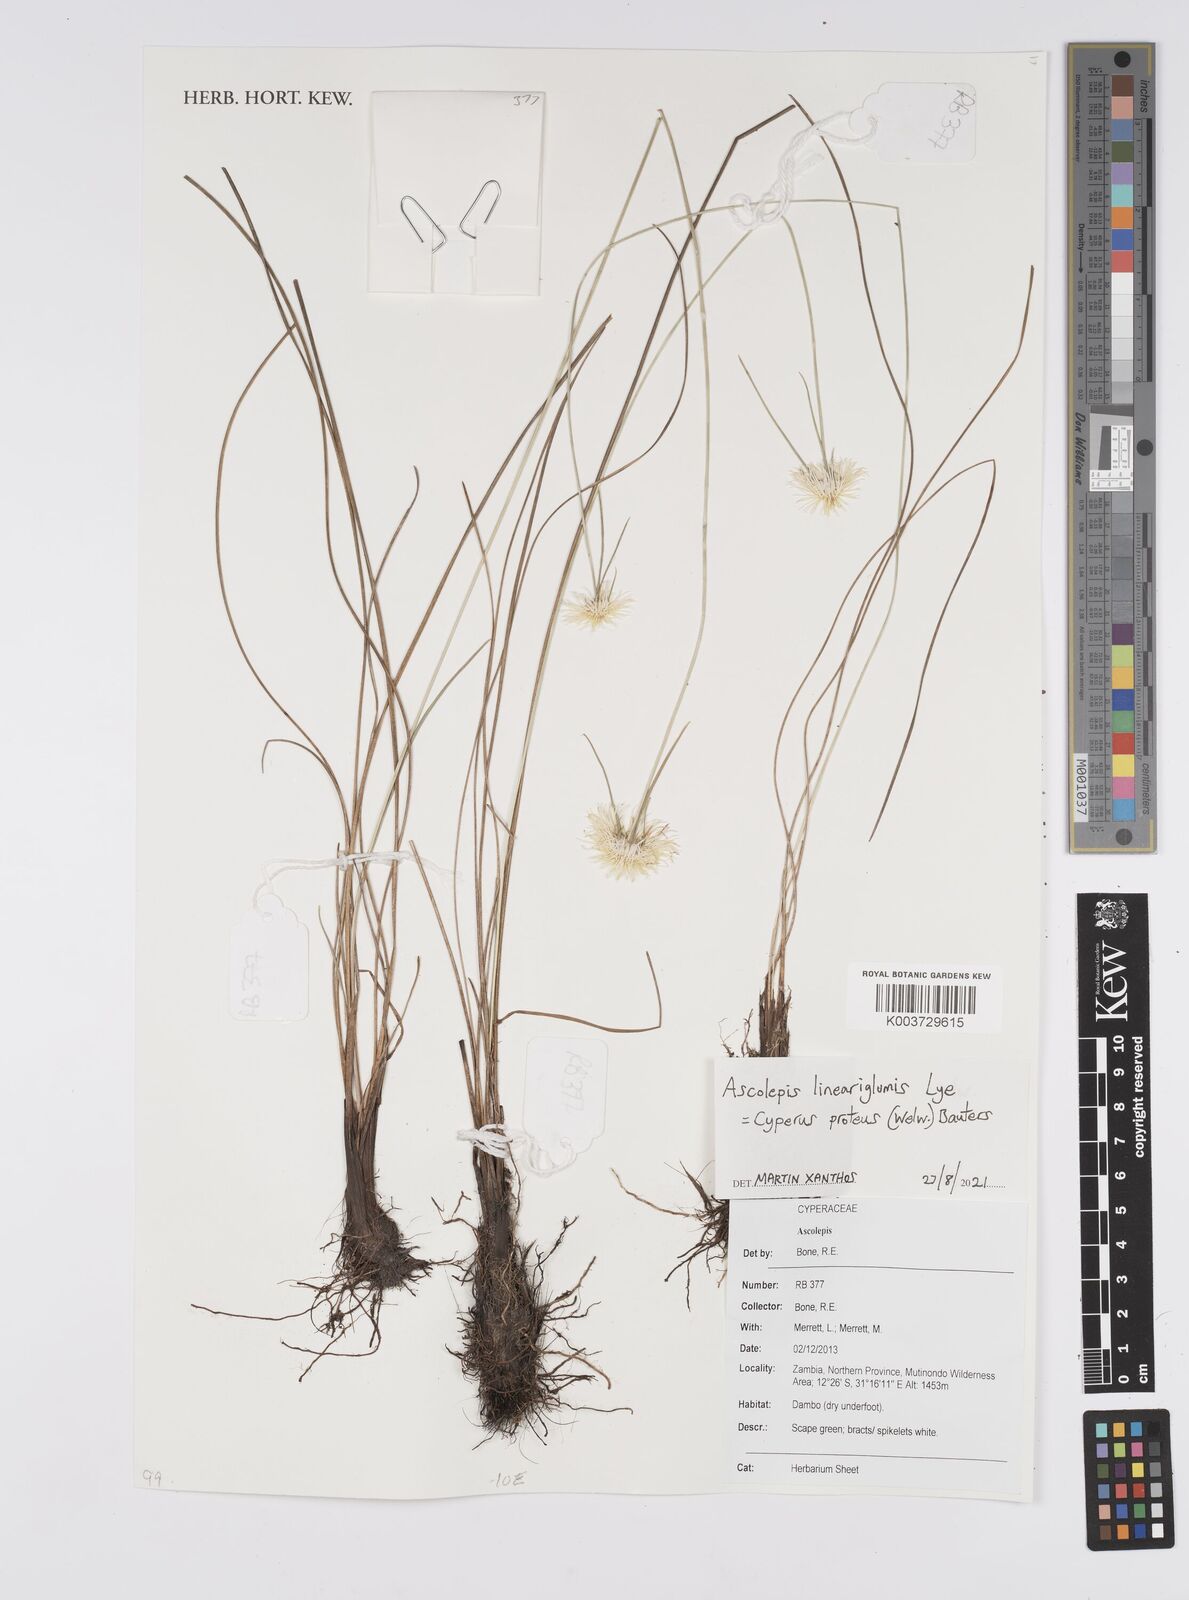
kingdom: Plantae
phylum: Tracheophyta
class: Liliopsida
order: Poales
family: Cyperaceae
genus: Cyperus
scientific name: Cyperus
